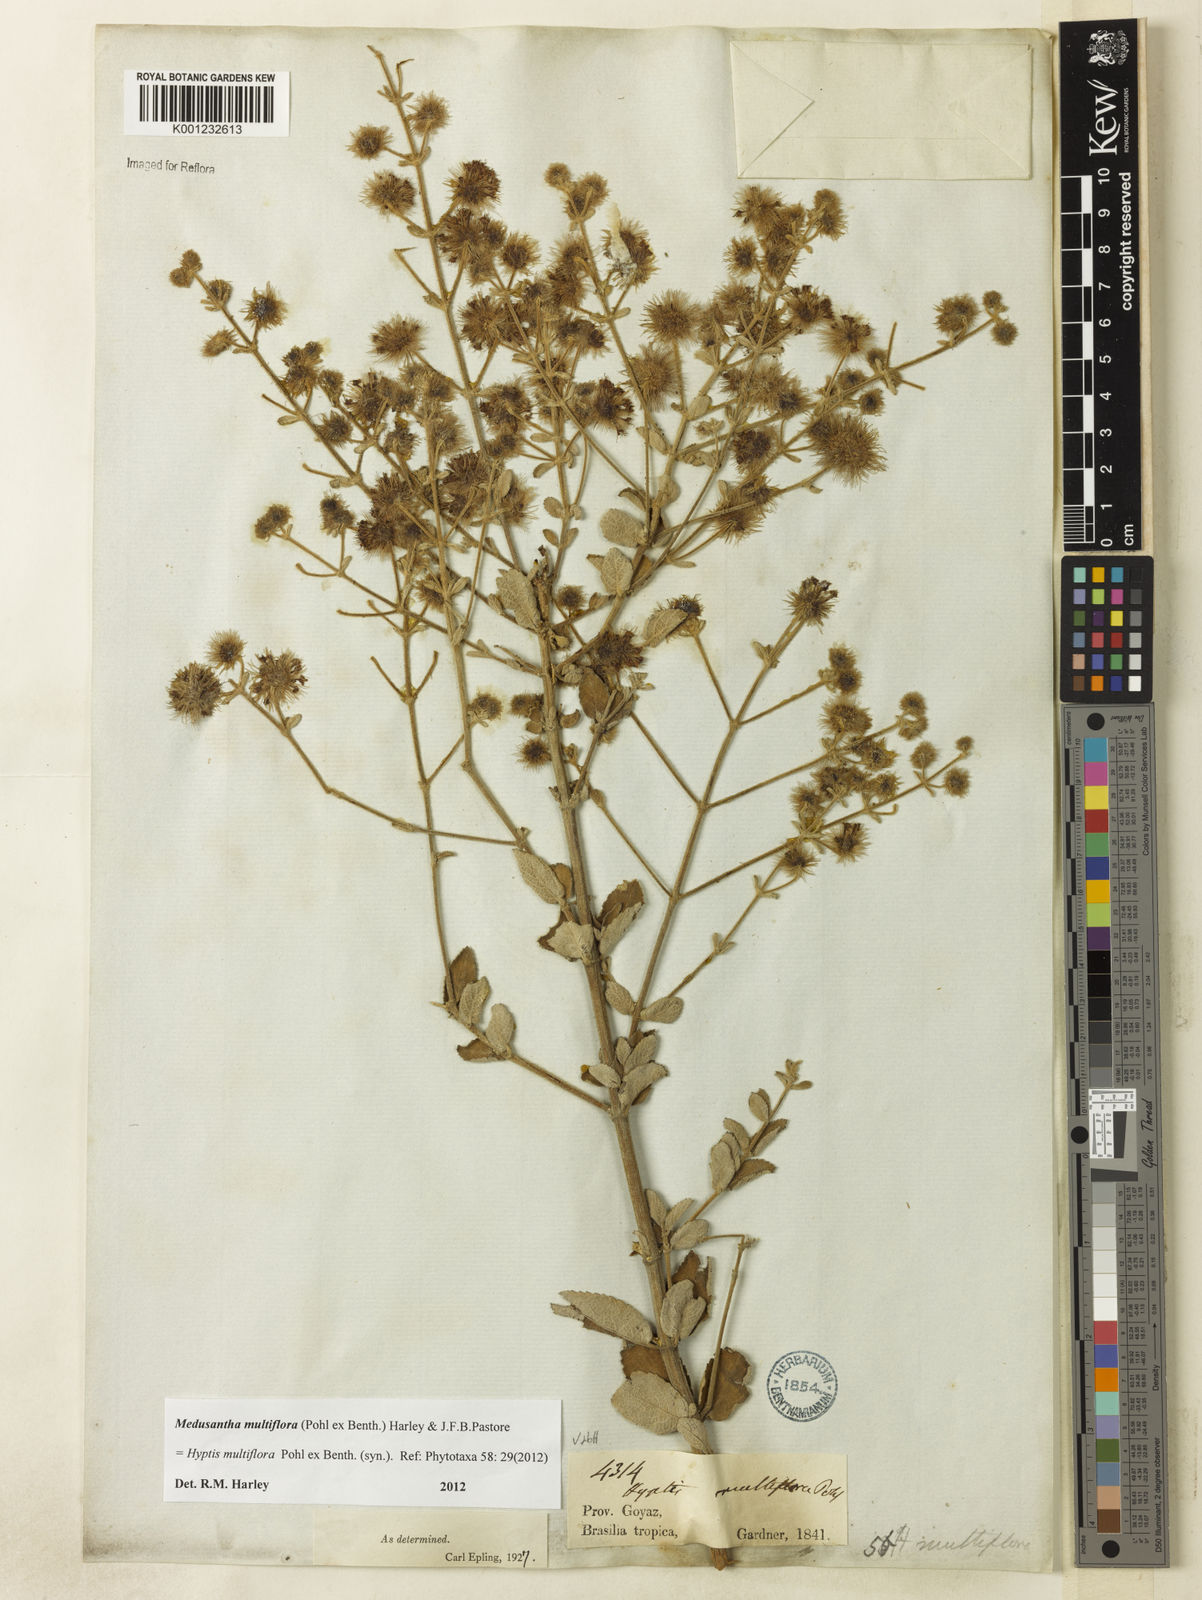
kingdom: Plantae
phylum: Tracheophyta
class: Magnoliopsida
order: Lamiales
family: Lamiaceae
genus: Medusantha
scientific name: Medusantha multiflora
